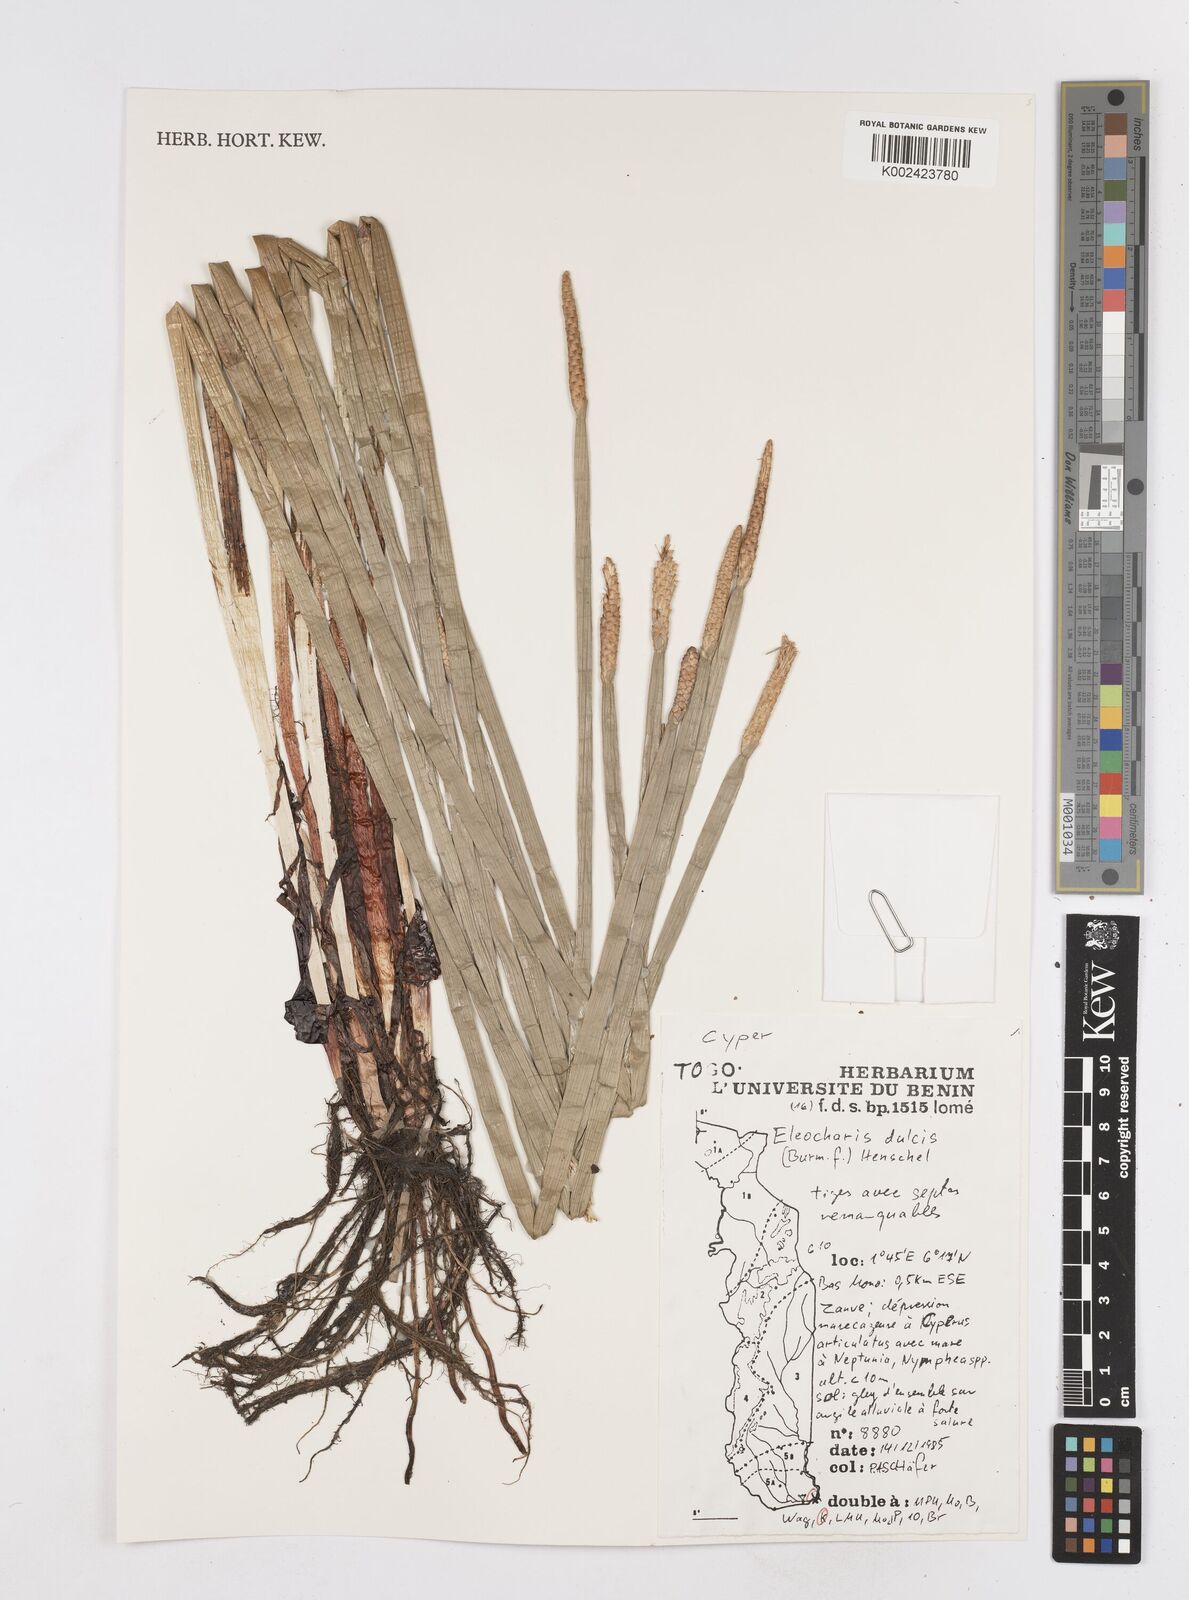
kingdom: Plantae
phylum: Tracheophyta
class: Liliopsida
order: Poales
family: Cyperaceae
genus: Eleocharis
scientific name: Eleocharis dulcis
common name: Chinese water chestnut
